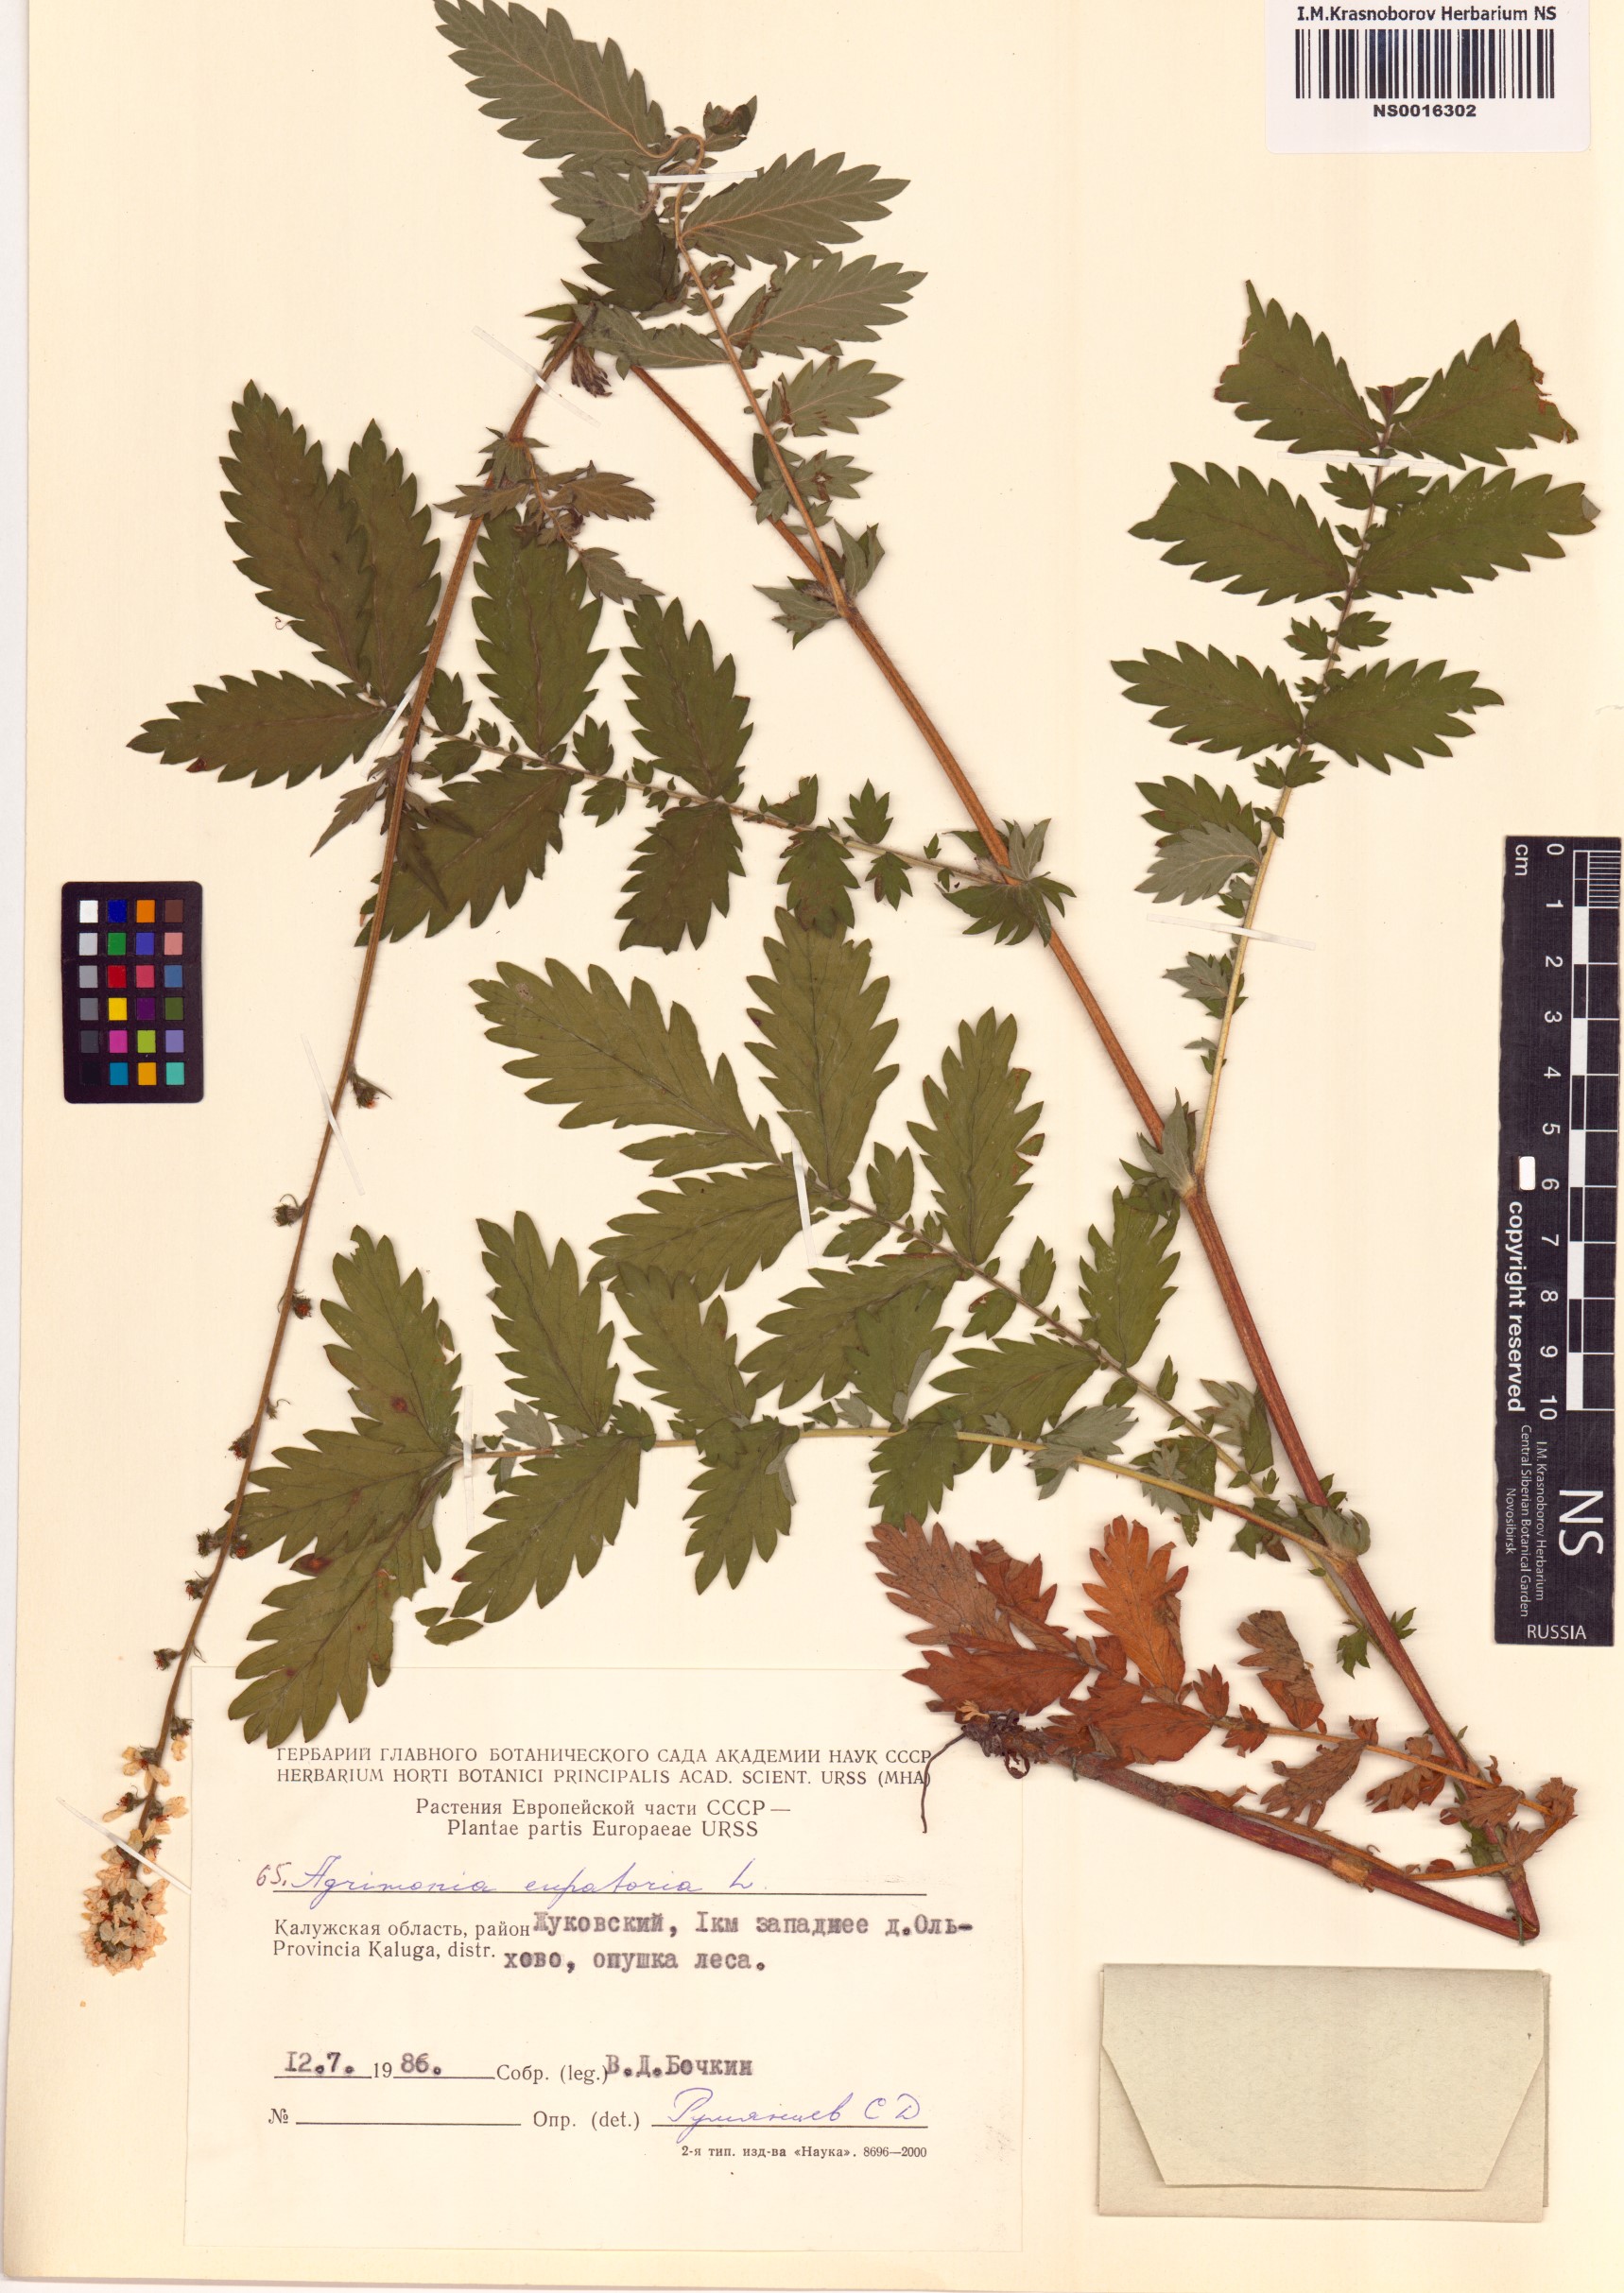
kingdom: Plantae
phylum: Tracheophyta
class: Magnoliopsida
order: Rosales
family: Rosaceae
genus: Agrimonia
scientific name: Agrimonia eupatoria
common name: Agrimony
